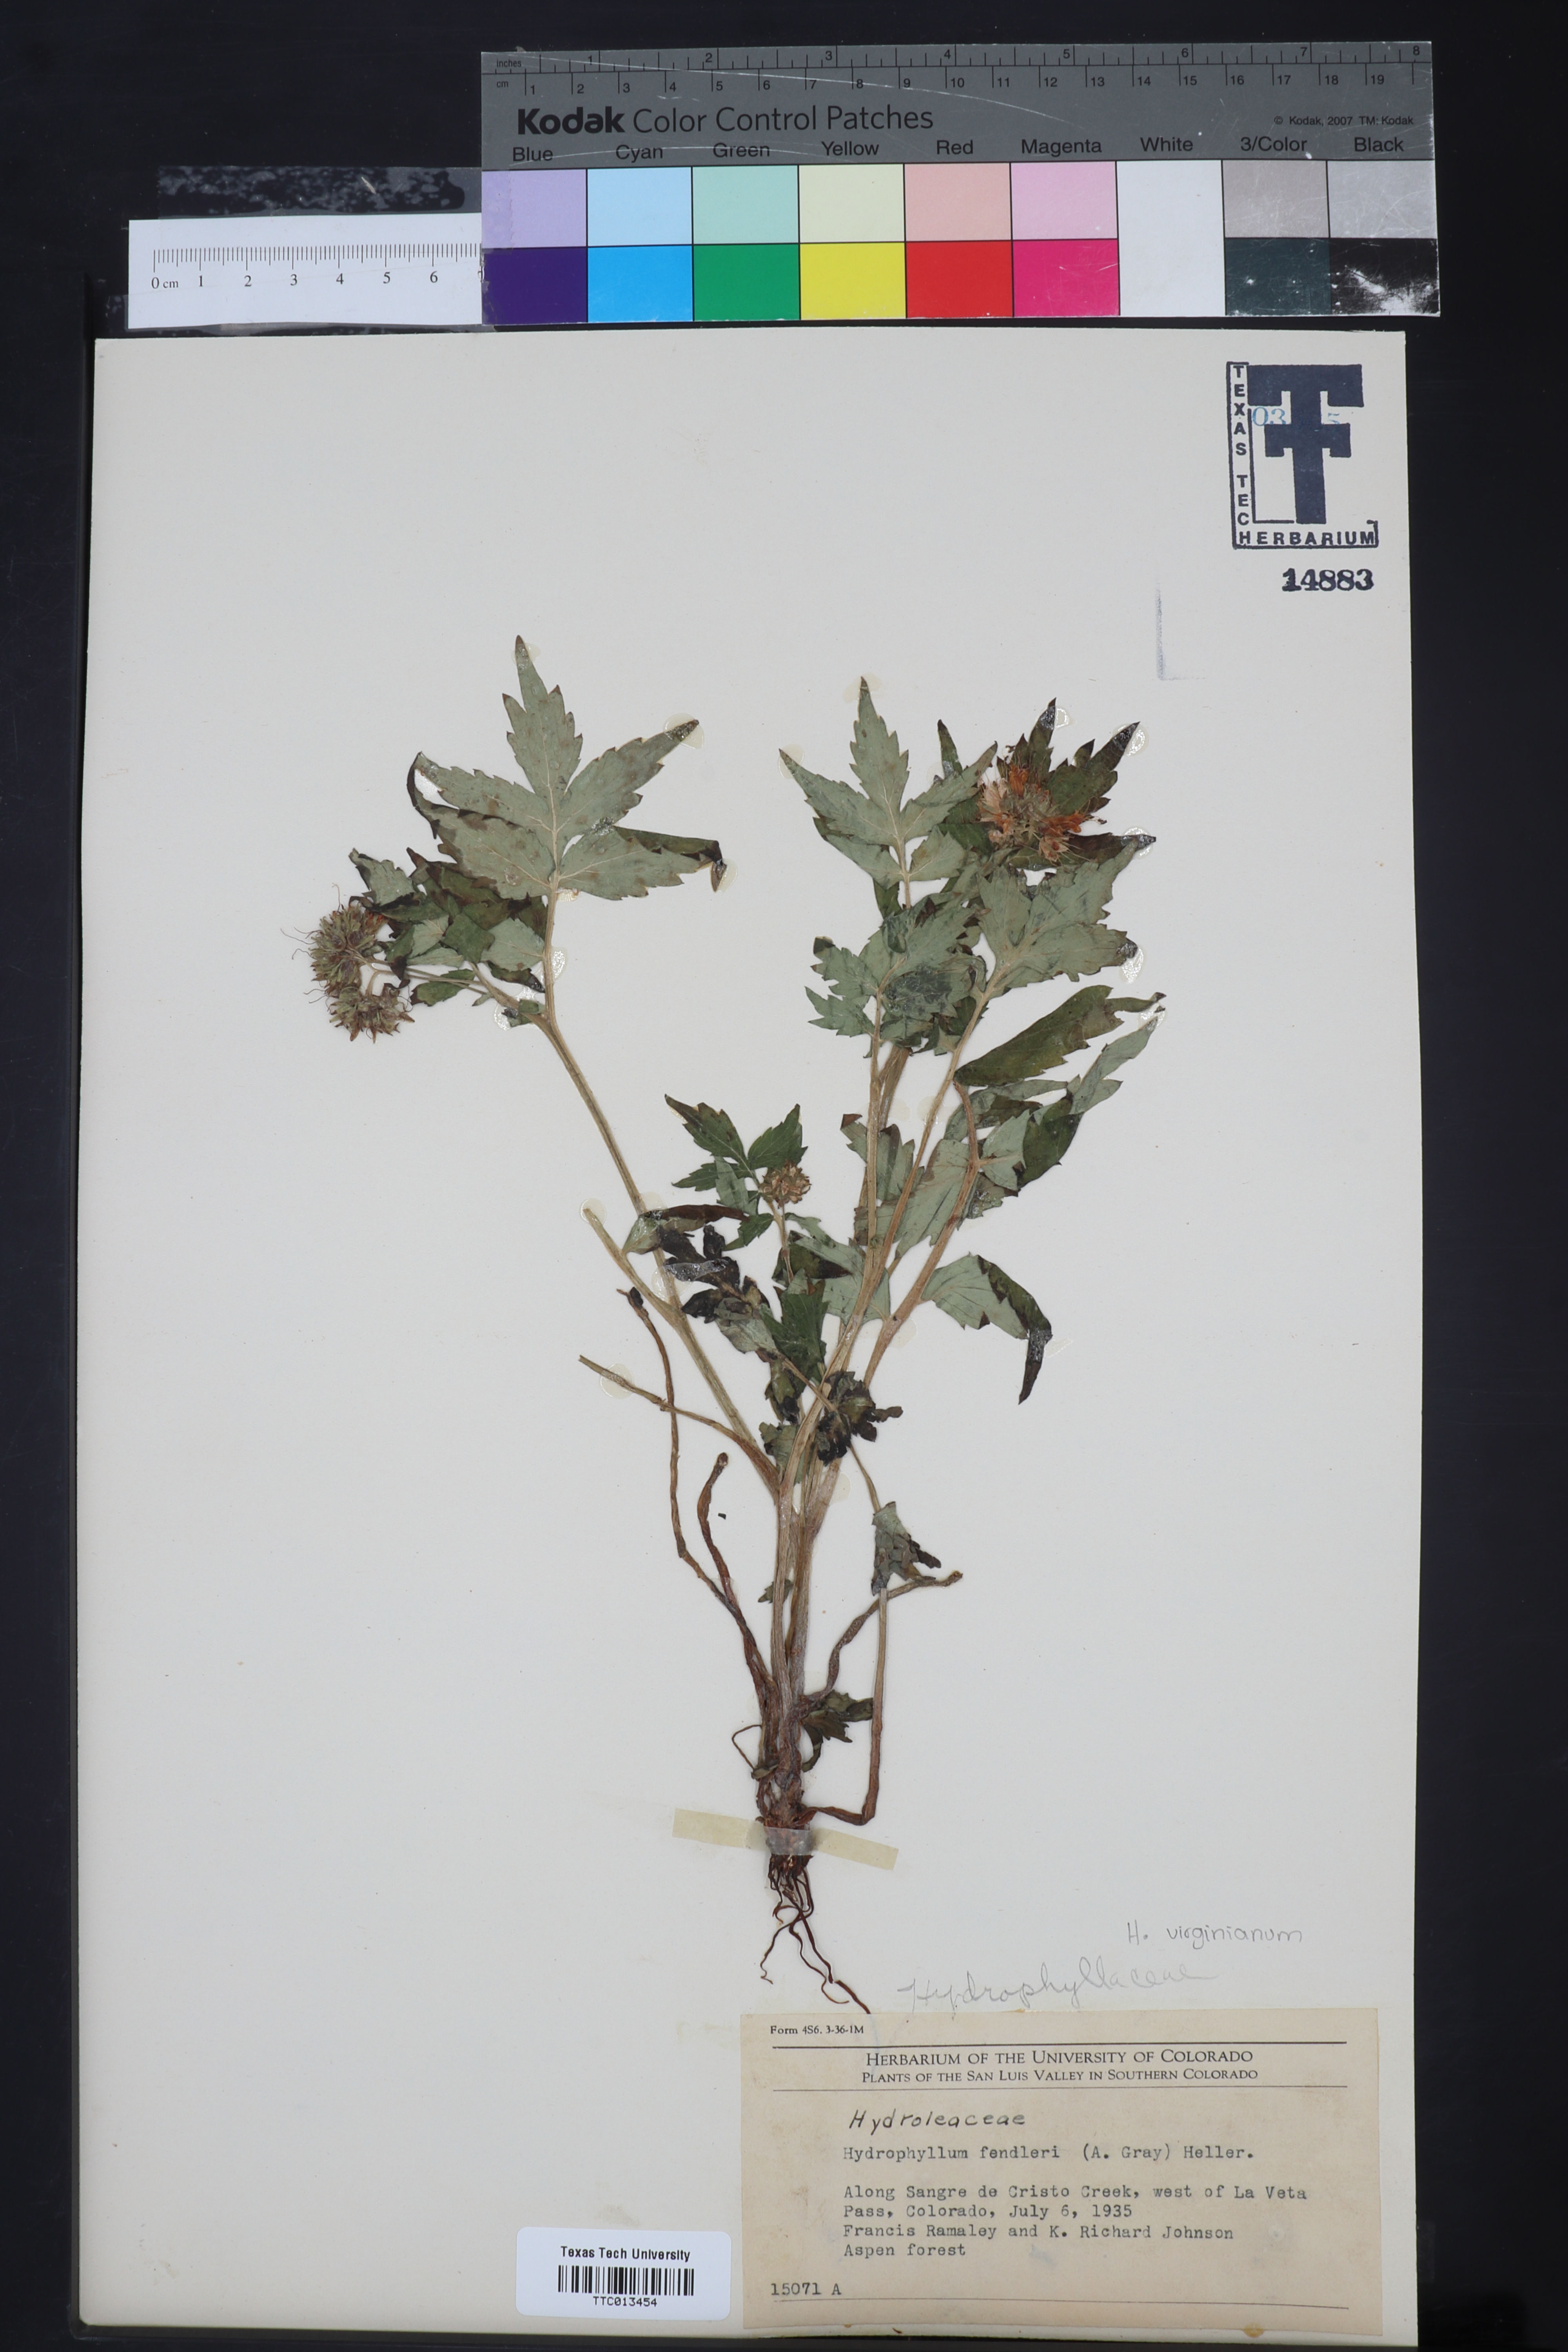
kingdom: Plantae
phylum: Tracheophyta
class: Magnoliopsida
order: Boraginales
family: Hydrophyllaceae
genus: Hydrophyllum
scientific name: Hydrophyllum fendleri
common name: Fendler's waterleaf
